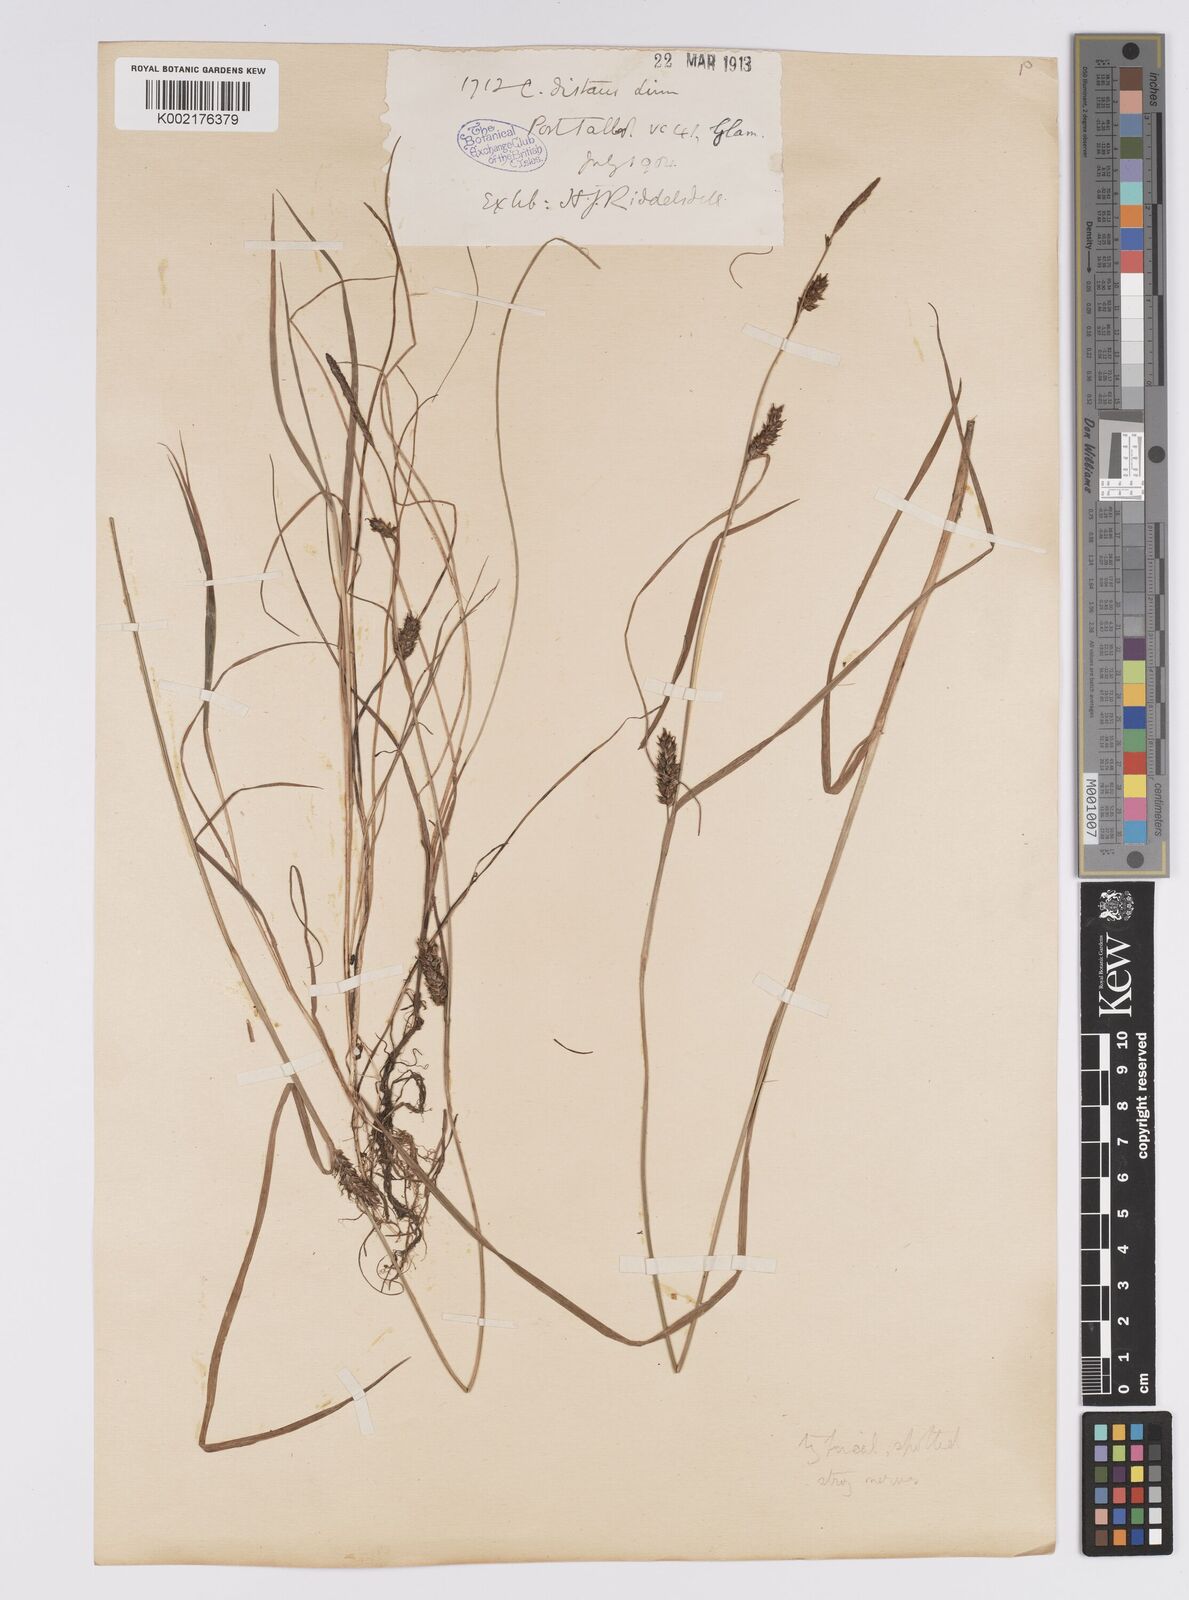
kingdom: Plantae
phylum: Tracheophyta
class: Liliopsida
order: Poales
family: Cyperaceae
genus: Carex
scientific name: Carex distans
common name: Distant sedge
